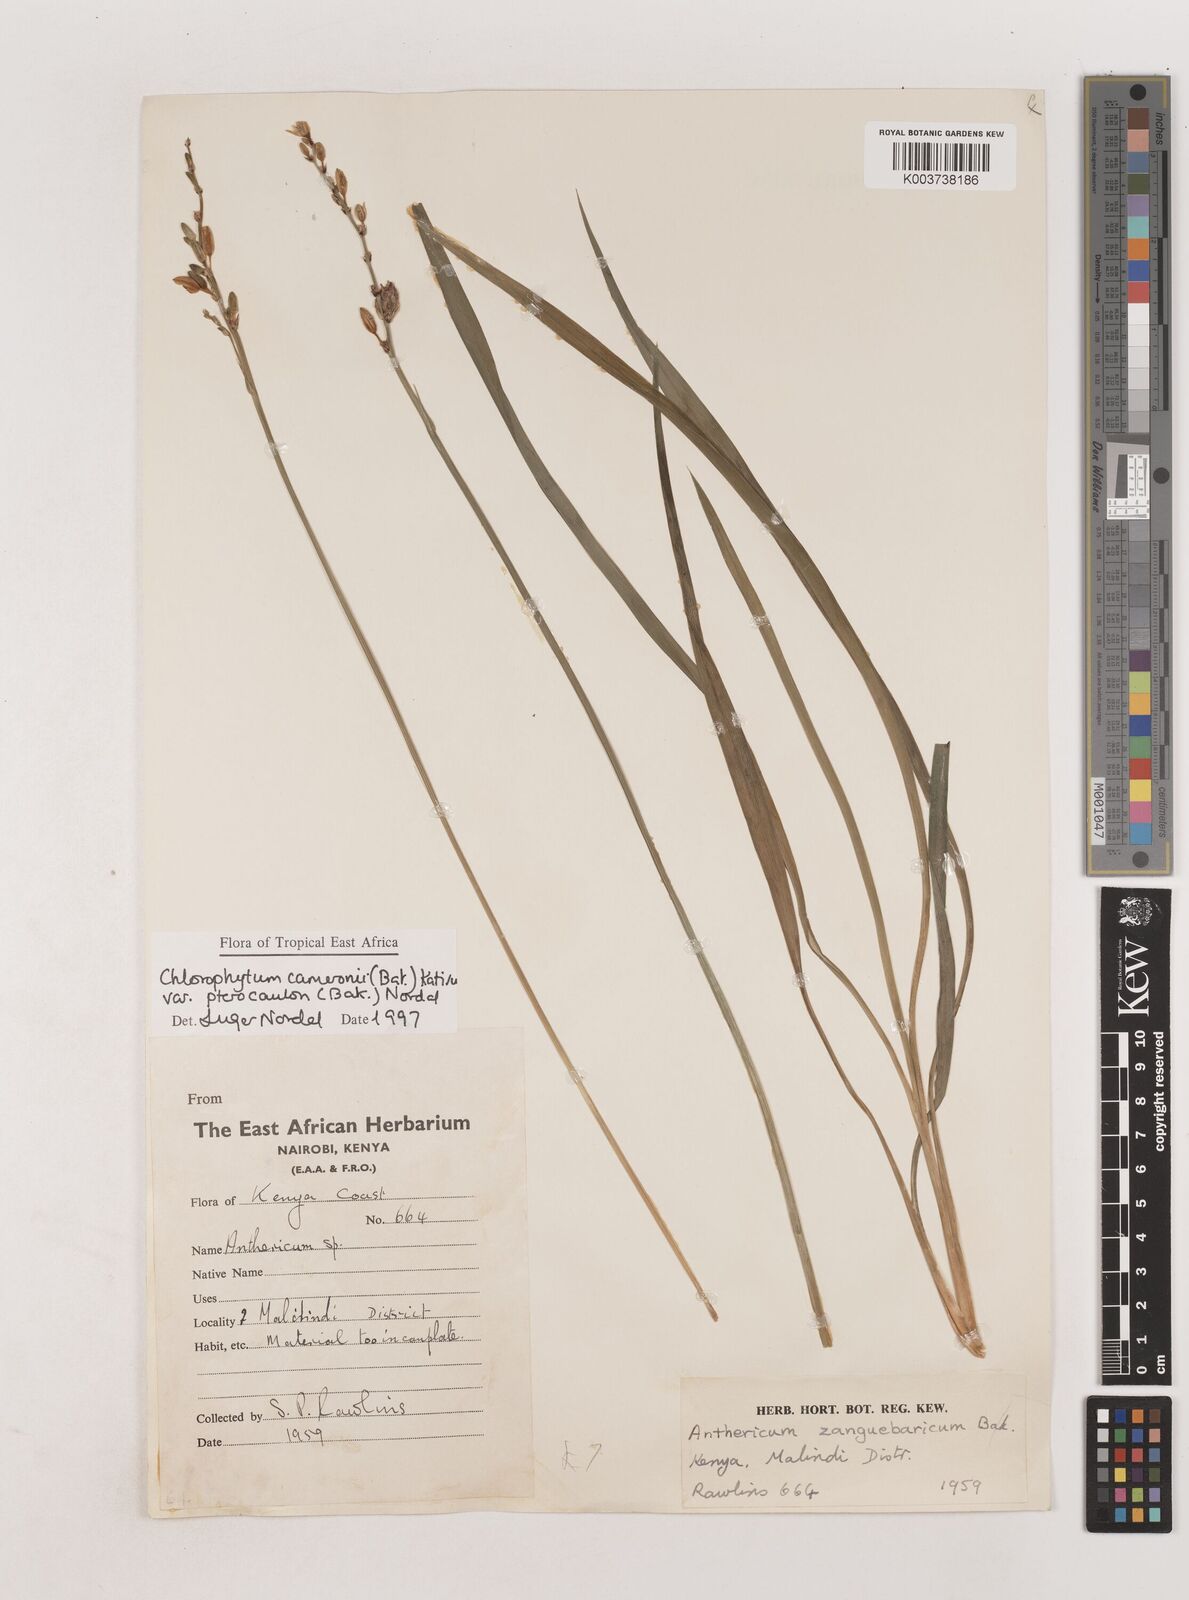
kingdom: Plantae
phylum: Tracheophyta
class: Liliopsida
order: Asparagales
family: Asparagaceae
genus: Chlorophytum
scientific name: Chlorophytum cameronii
